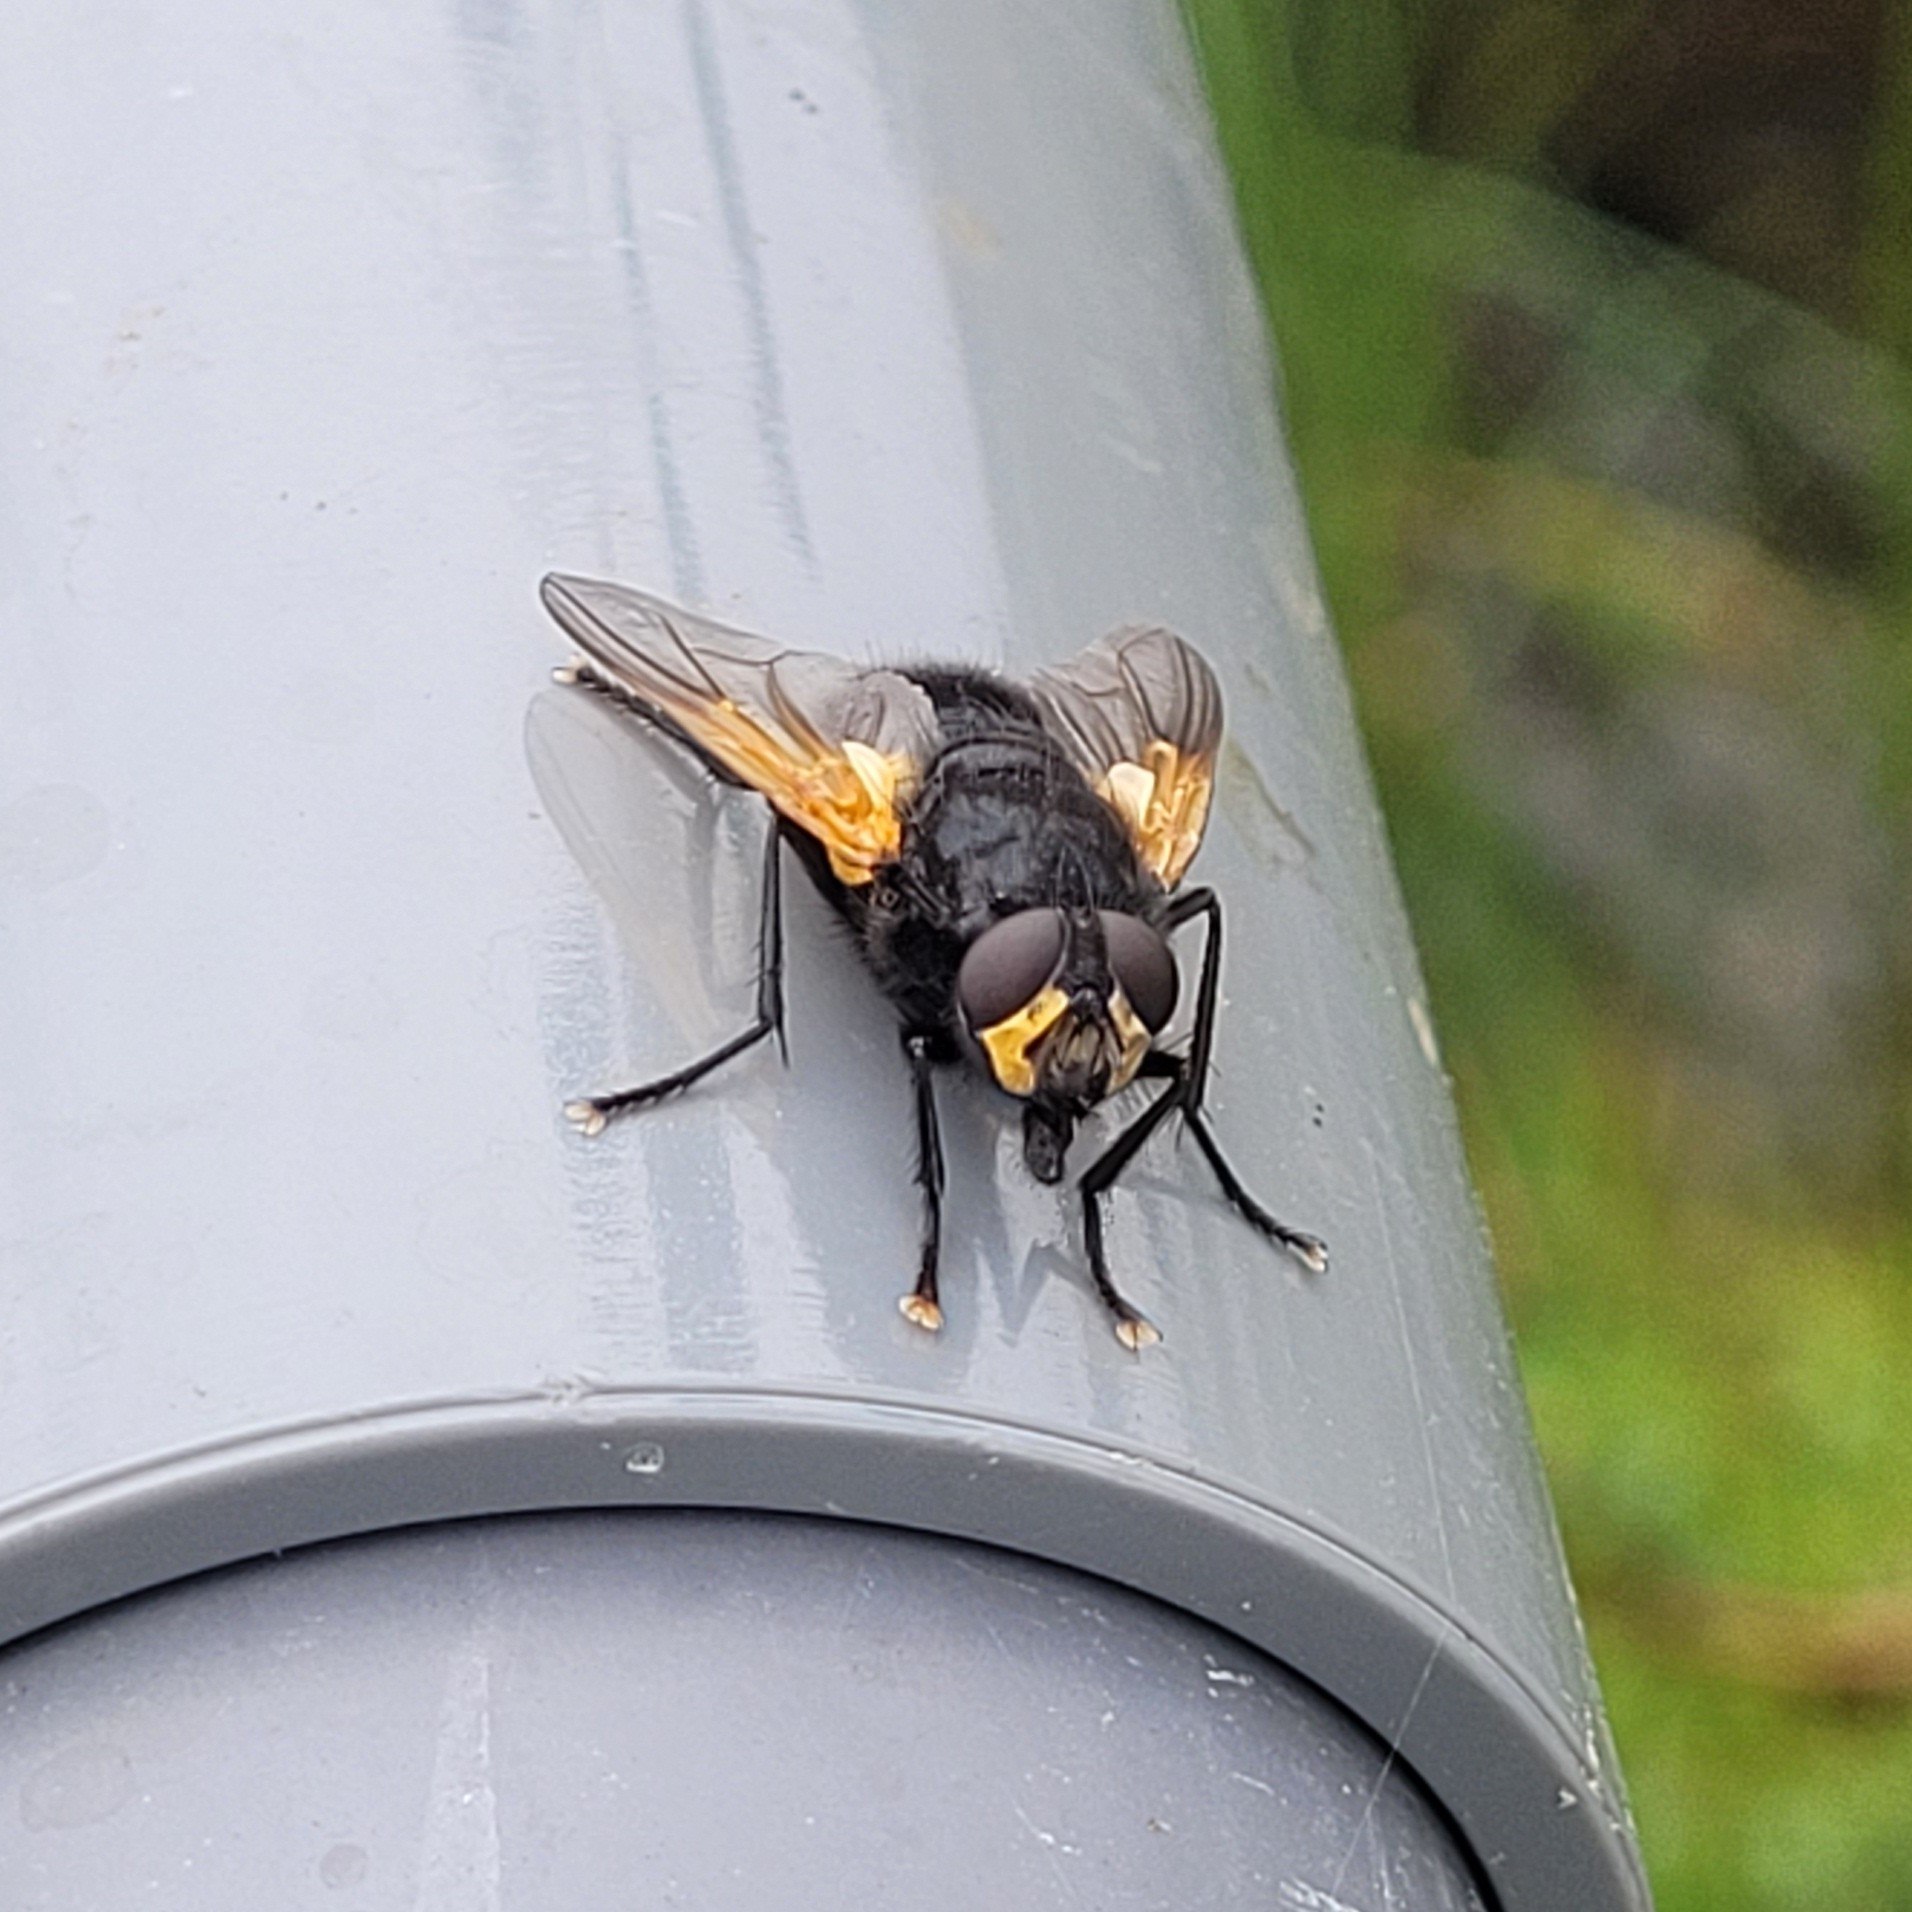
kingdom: Animalia
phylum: Arthropoda
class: Insecta
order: Diptera
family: Muscidae
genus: Mesembrina
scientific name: Mesembrina meridiana
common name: Gulvinget flue
